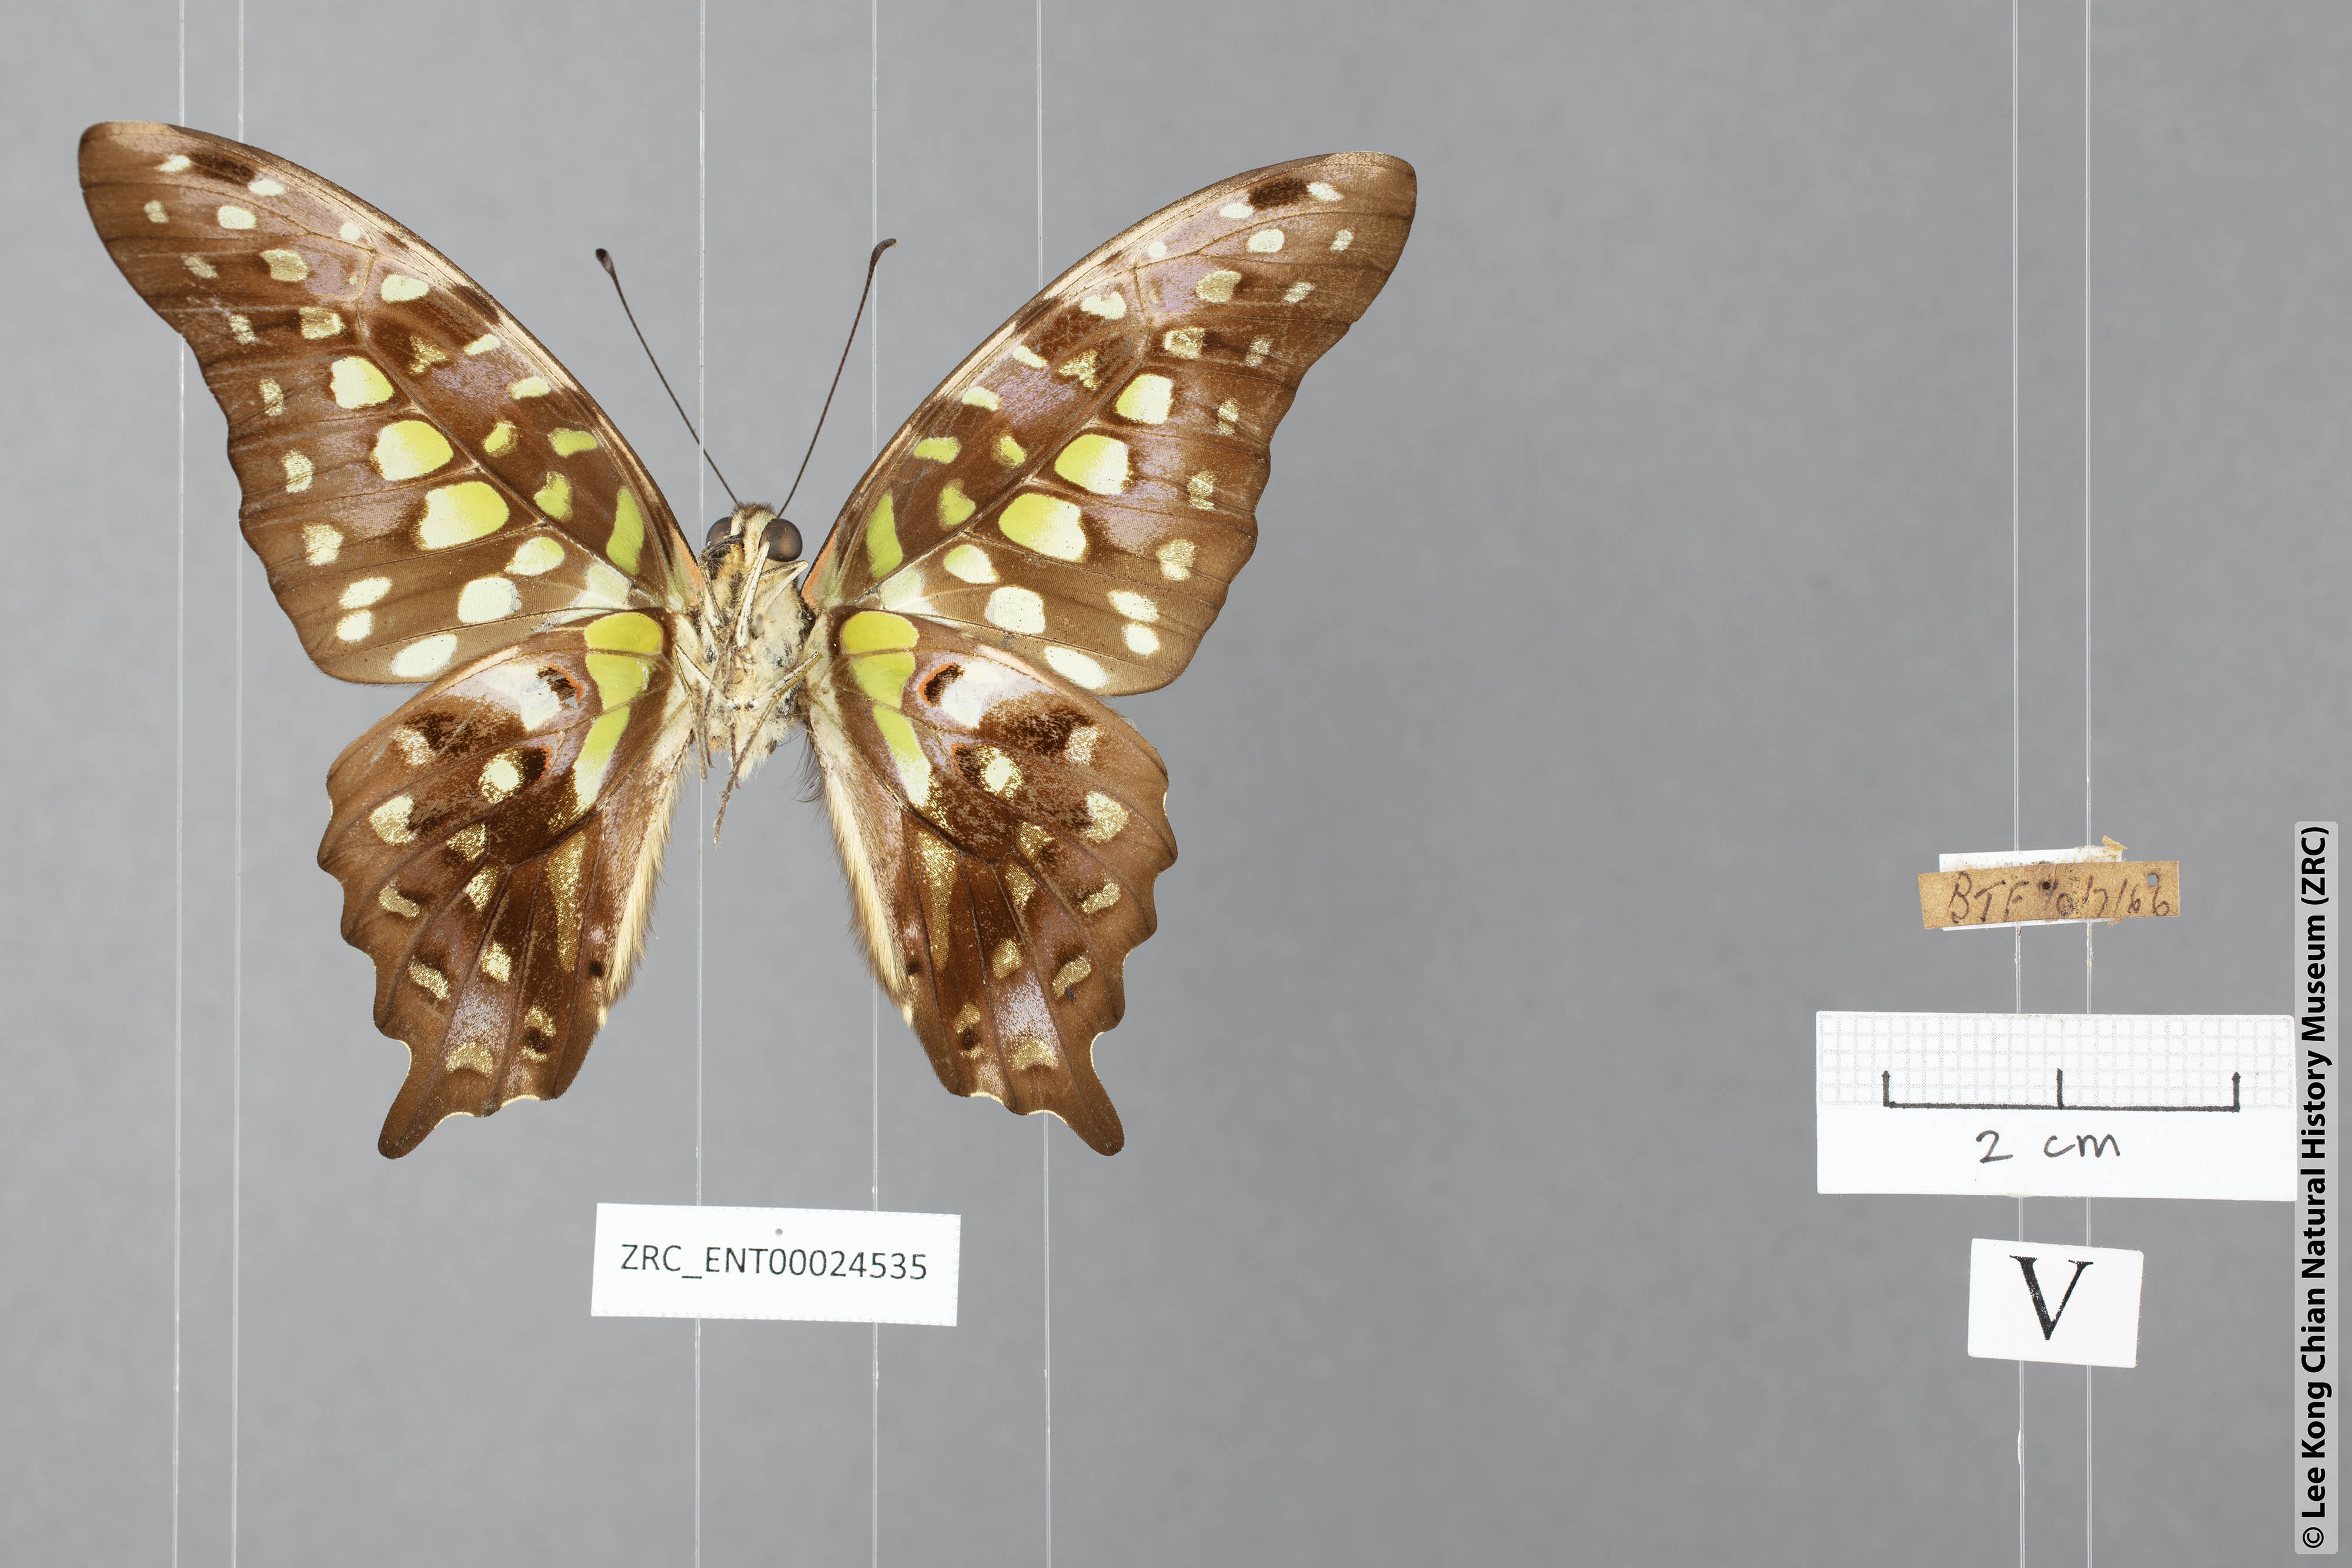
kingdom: Animalia
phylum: Arthropoda
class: Insecta
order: Lepidoptera
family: Papilionidae
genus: Graphium
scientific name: Graphium agamemnon
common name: Tailed jay
